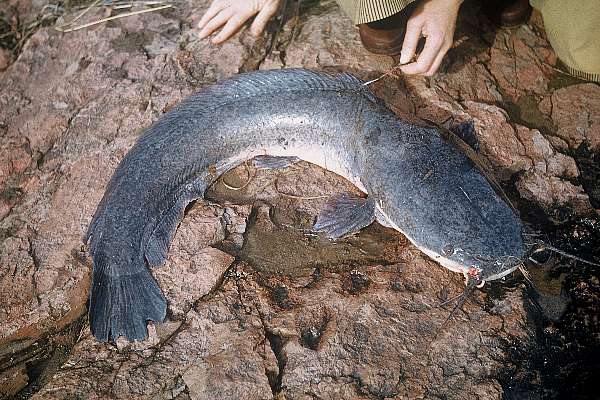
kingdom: Animalia
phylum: Chordata
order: Siluriformes
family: Clariidae
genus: Clarias
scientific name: Clarias gariepinus
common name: African catfish
